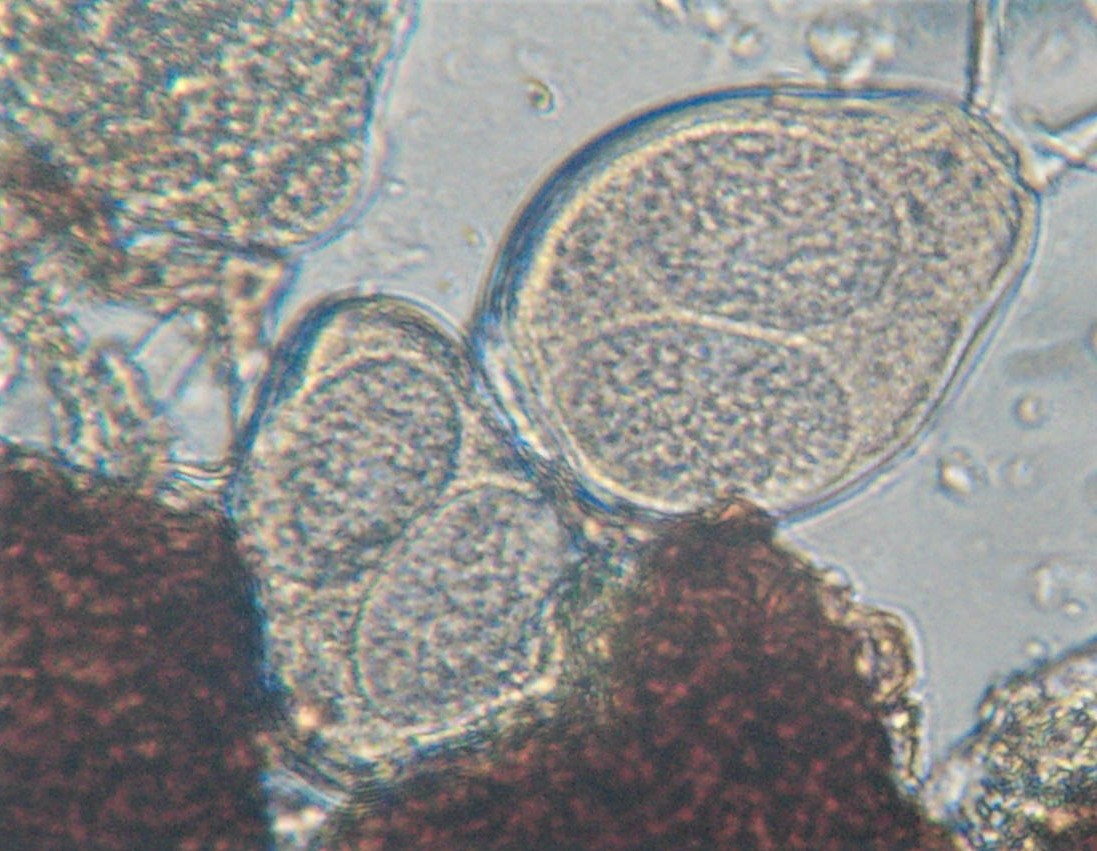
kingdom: Fungi
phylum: Ascomycota
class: Leotiomycetes
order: Helotiales
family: Erysiphaceae
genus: Golovinomyces
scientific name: Golovinomyces depressus
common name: Burdock mildew
